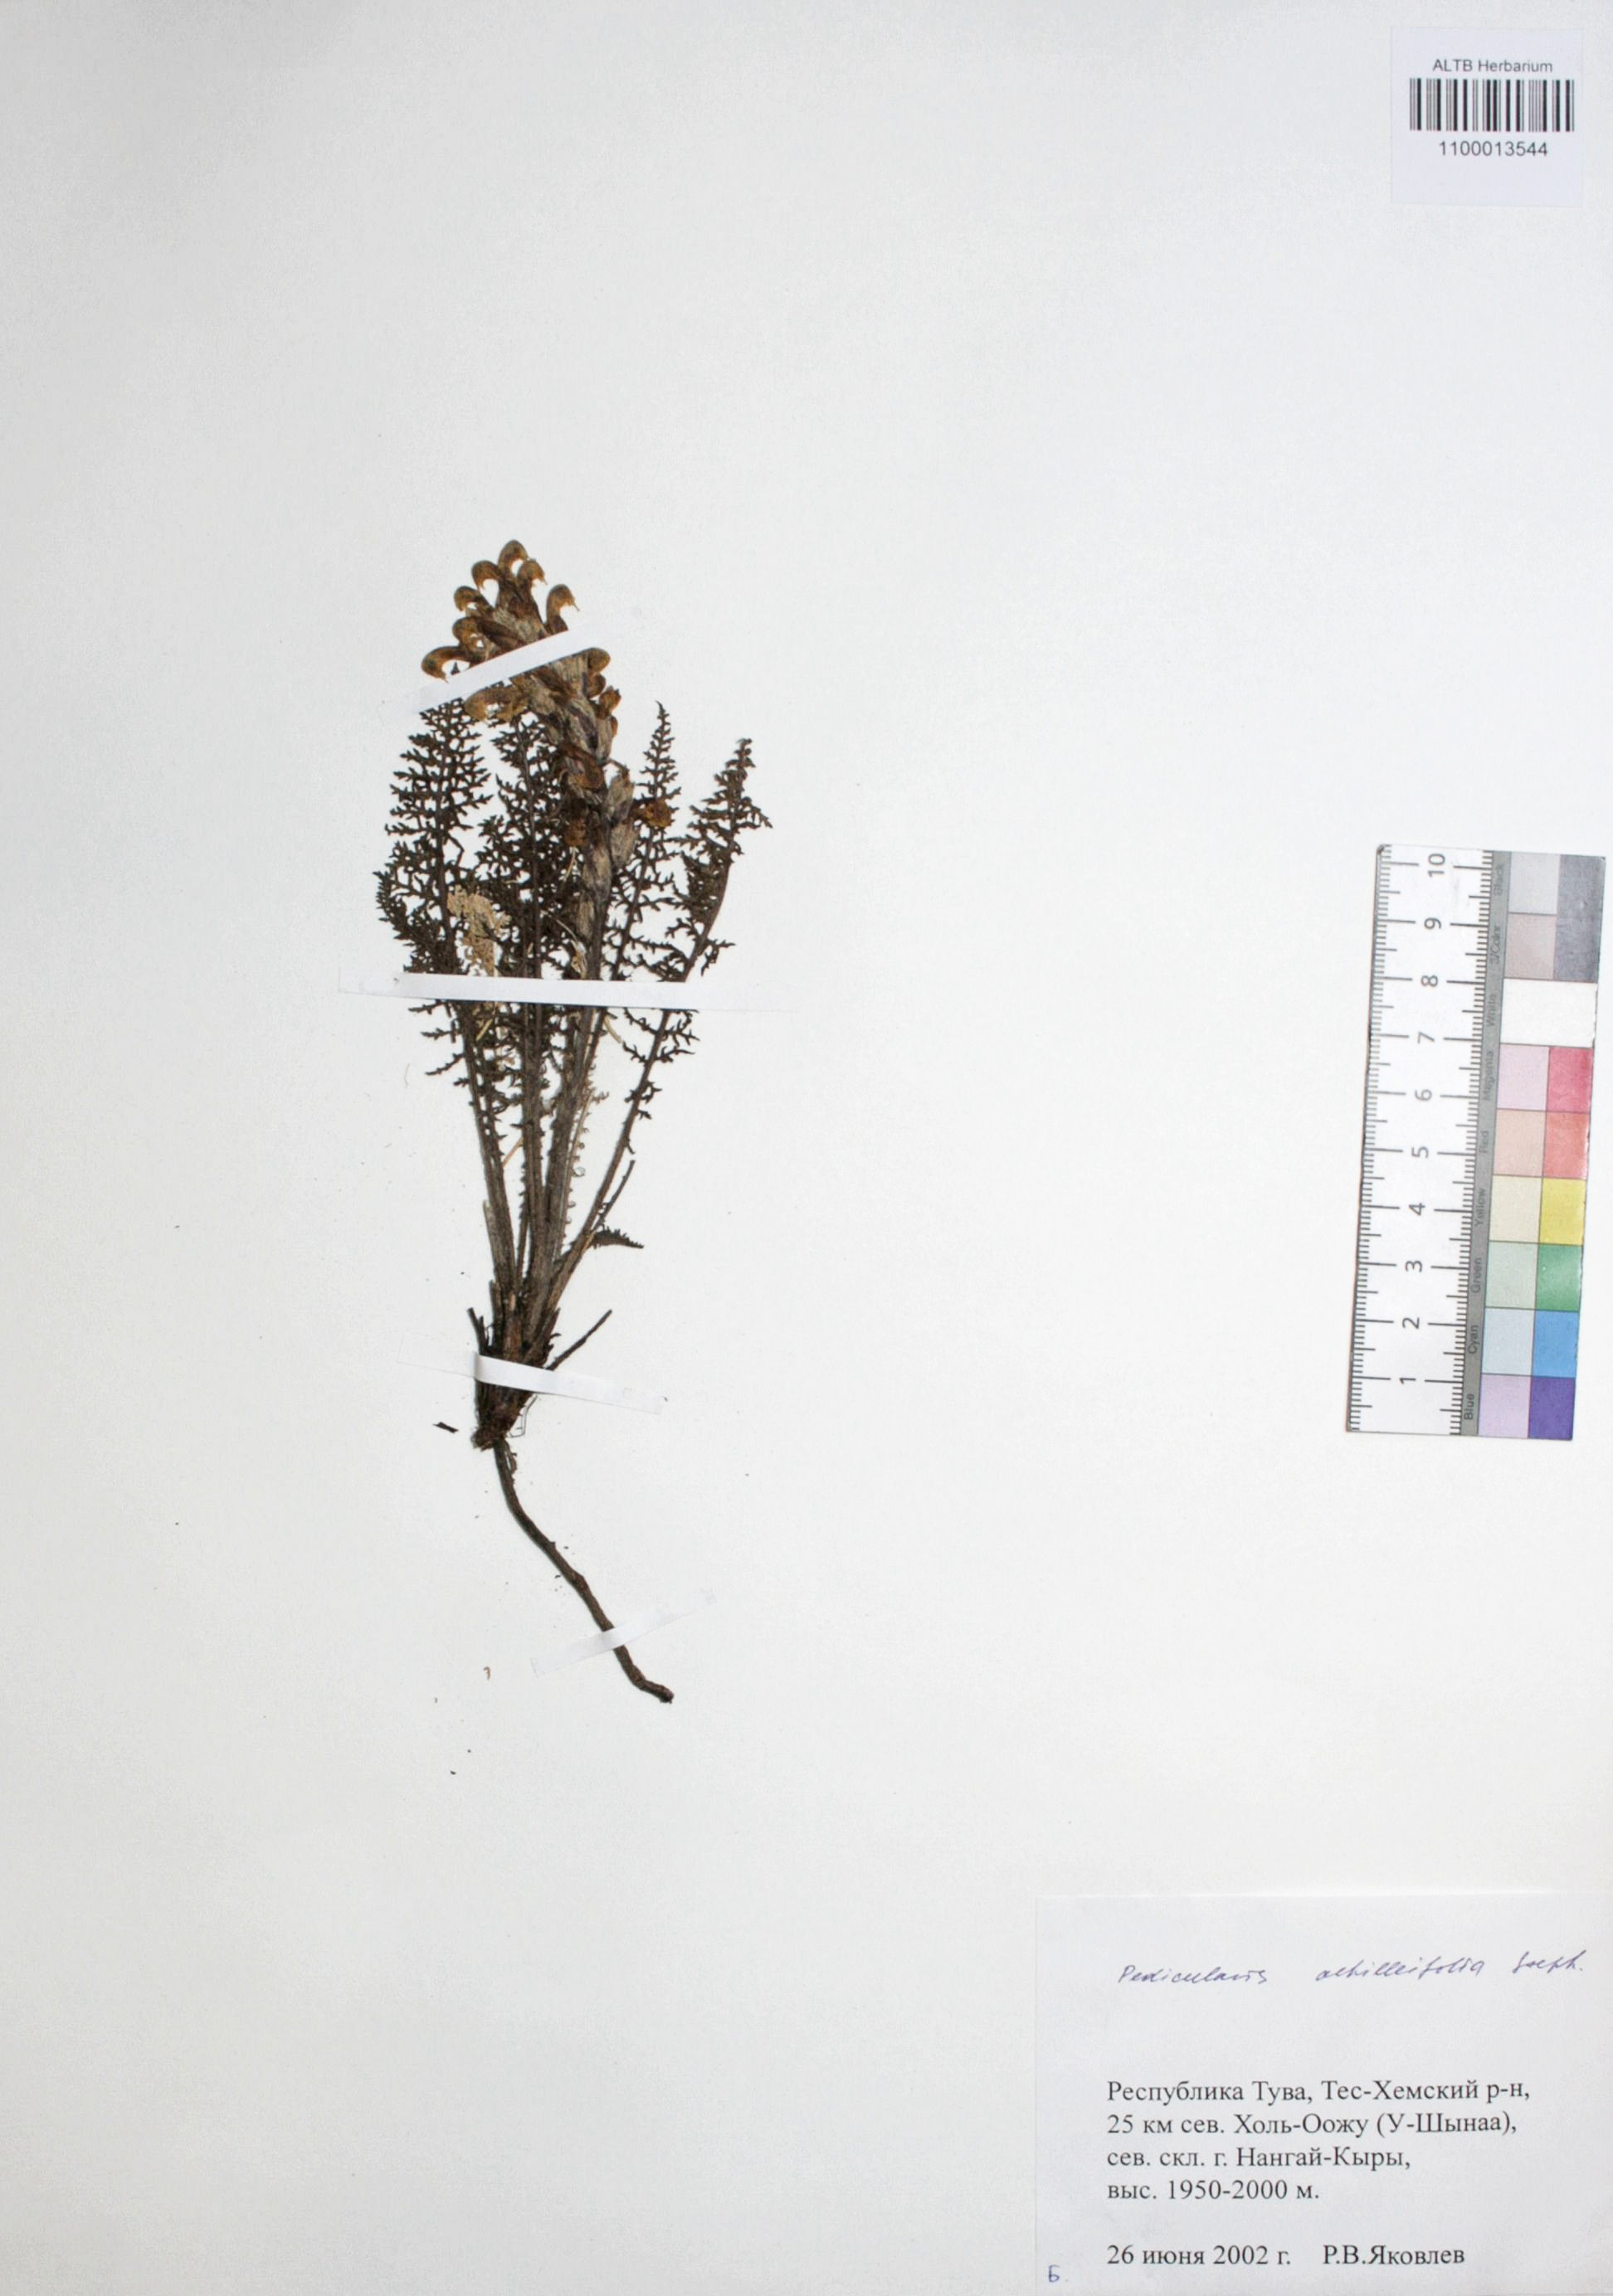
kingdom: Plantae
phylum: Tracheophyta
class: Magnoliopsida
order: Lamiales
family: Orobanchaceae
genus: Pedicularis
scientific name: Pedicularis achilleifolia
